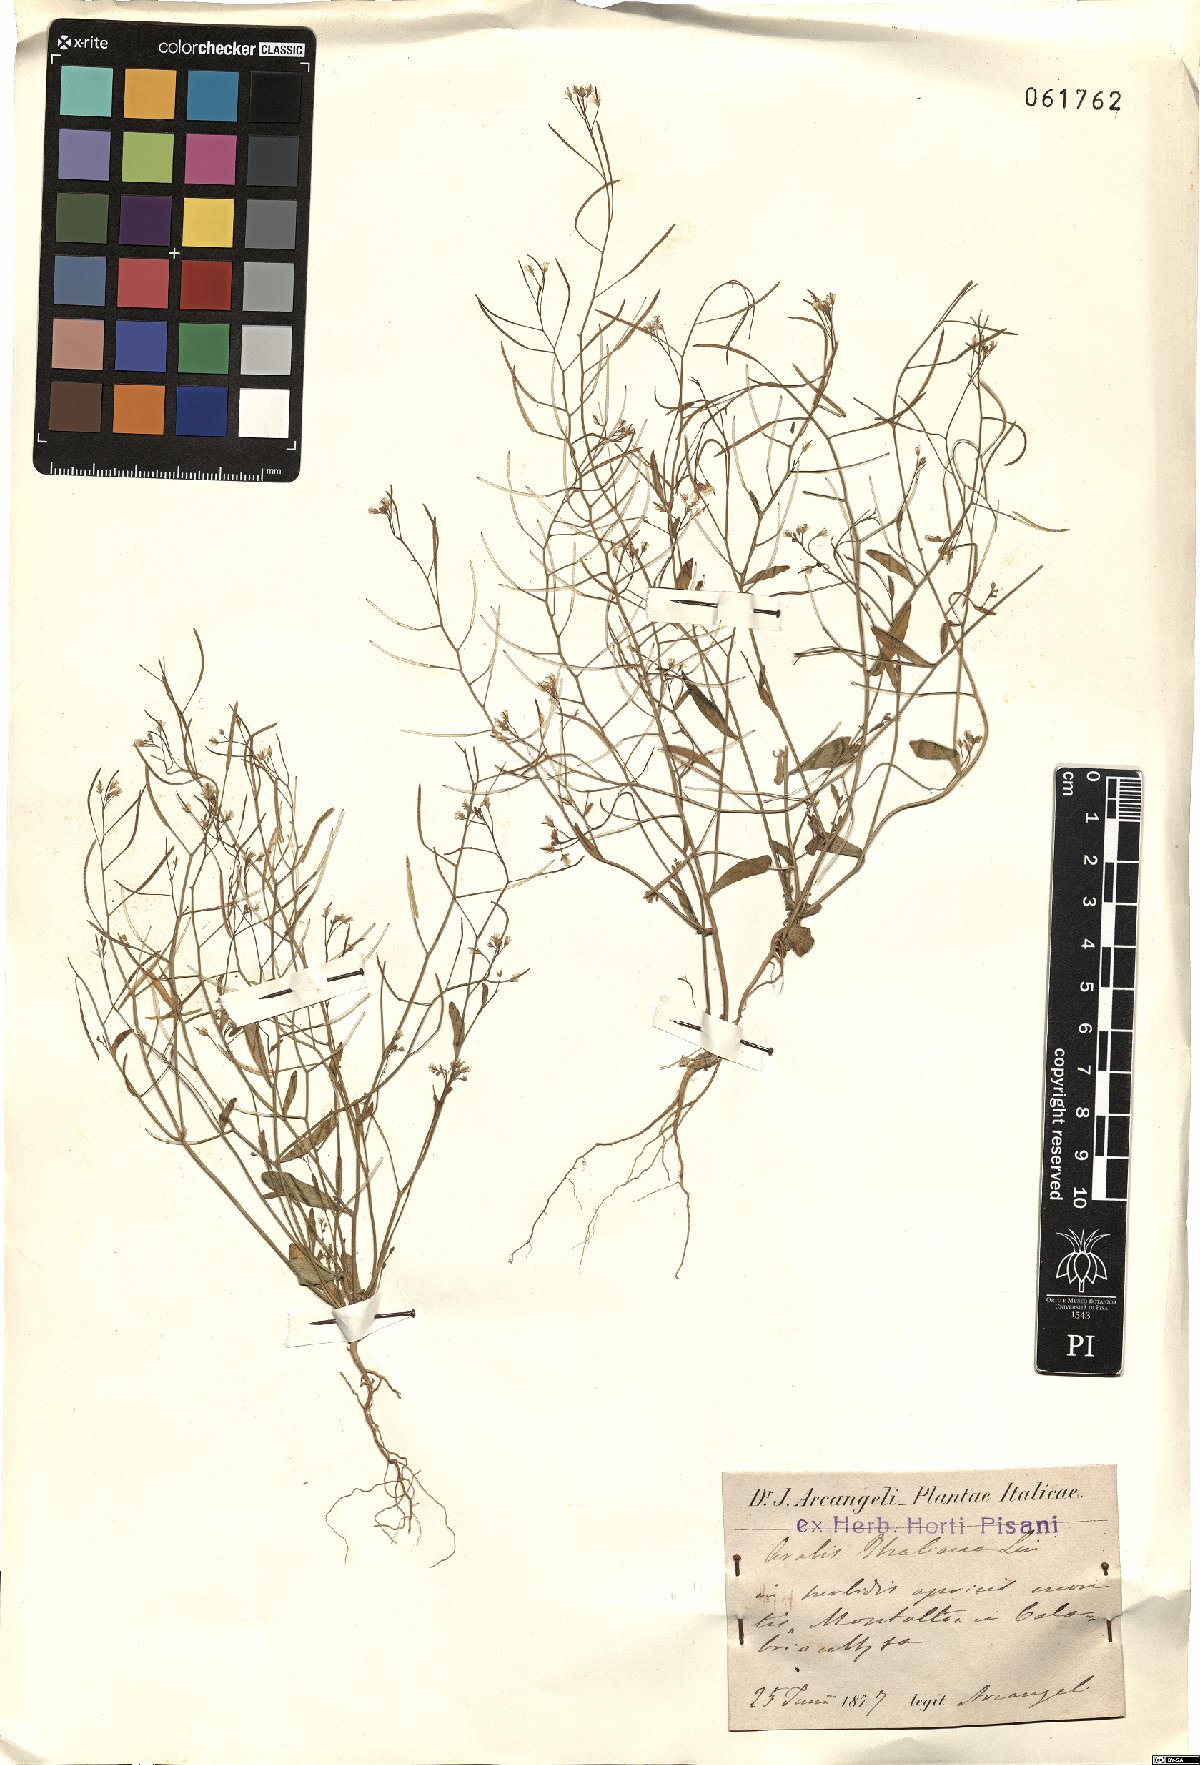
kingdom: Plantae
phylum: Tracheophyta
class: Magnoliopsida
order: Brassicales
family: Brassicaceae
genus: Arabidopsis
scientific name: Arabidopsis thaliana
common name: Thale cress
